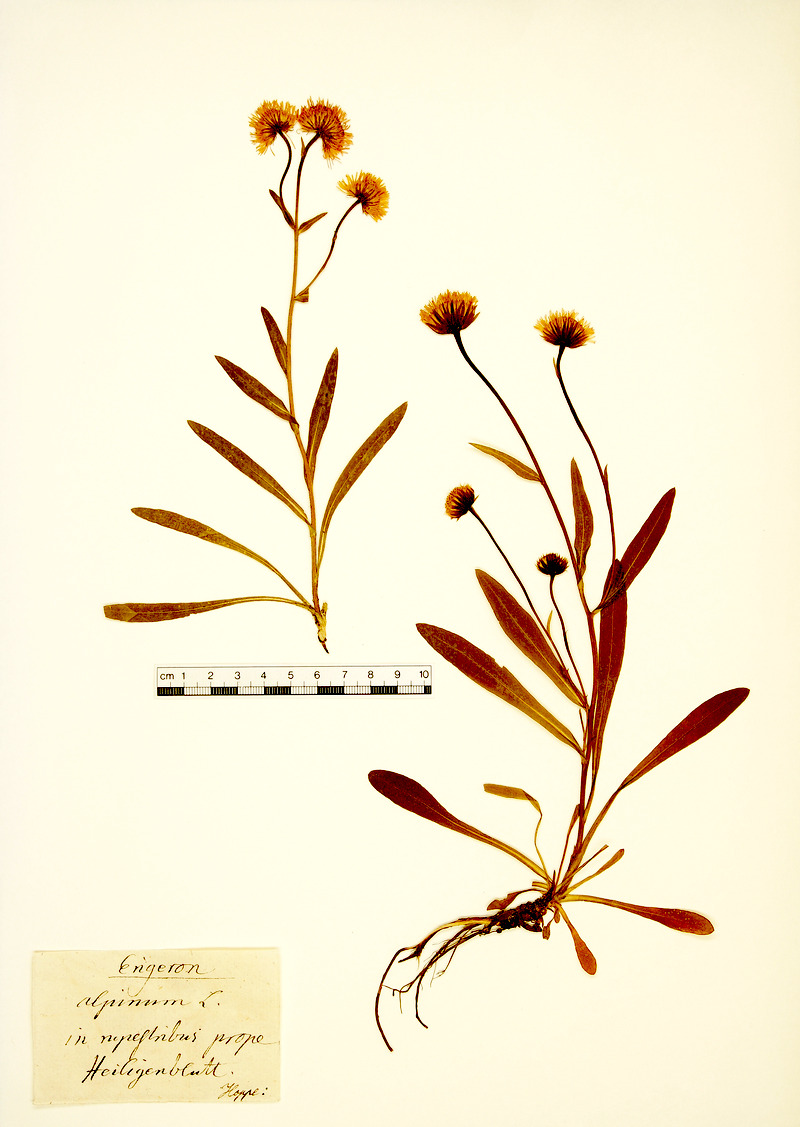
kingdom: Plantae
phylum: Tracheophyta
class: Magnoliopsida
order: Asterales
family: Asteraceae
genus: Erigeron
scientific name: Erigeron alpinus
